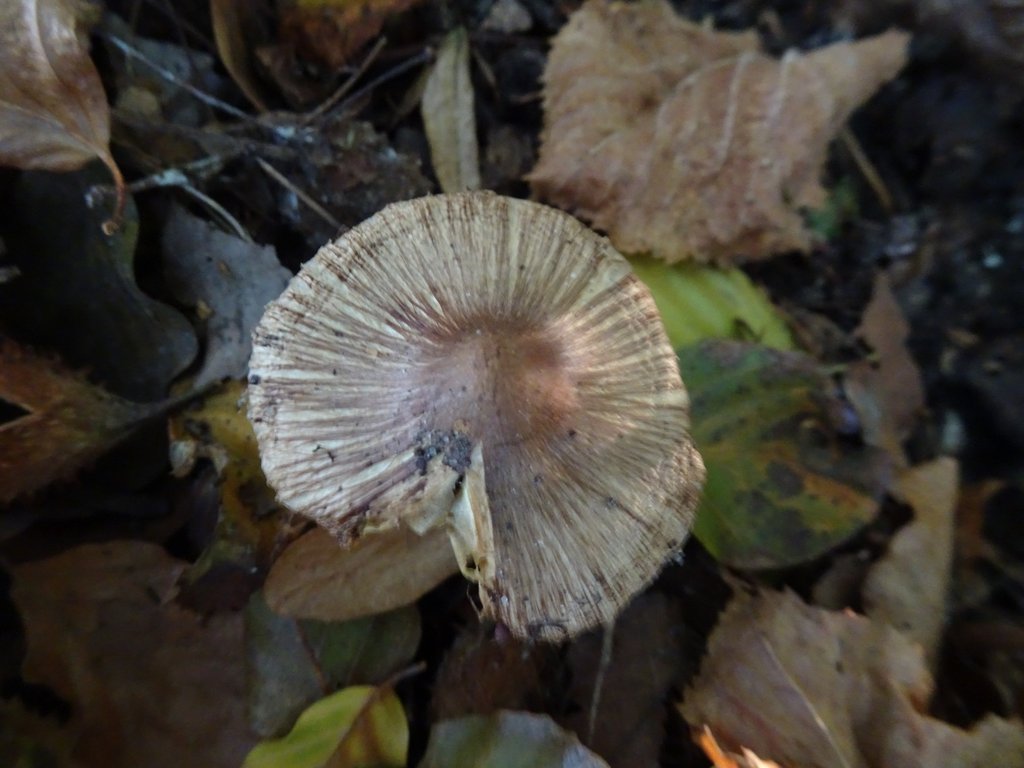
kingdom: Fungi
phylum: Basidiomycota
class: Agaricomycetes
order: Agaricales
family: Inocybaceae
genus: Inocybe
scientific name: Inocybe
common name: trævlhat
